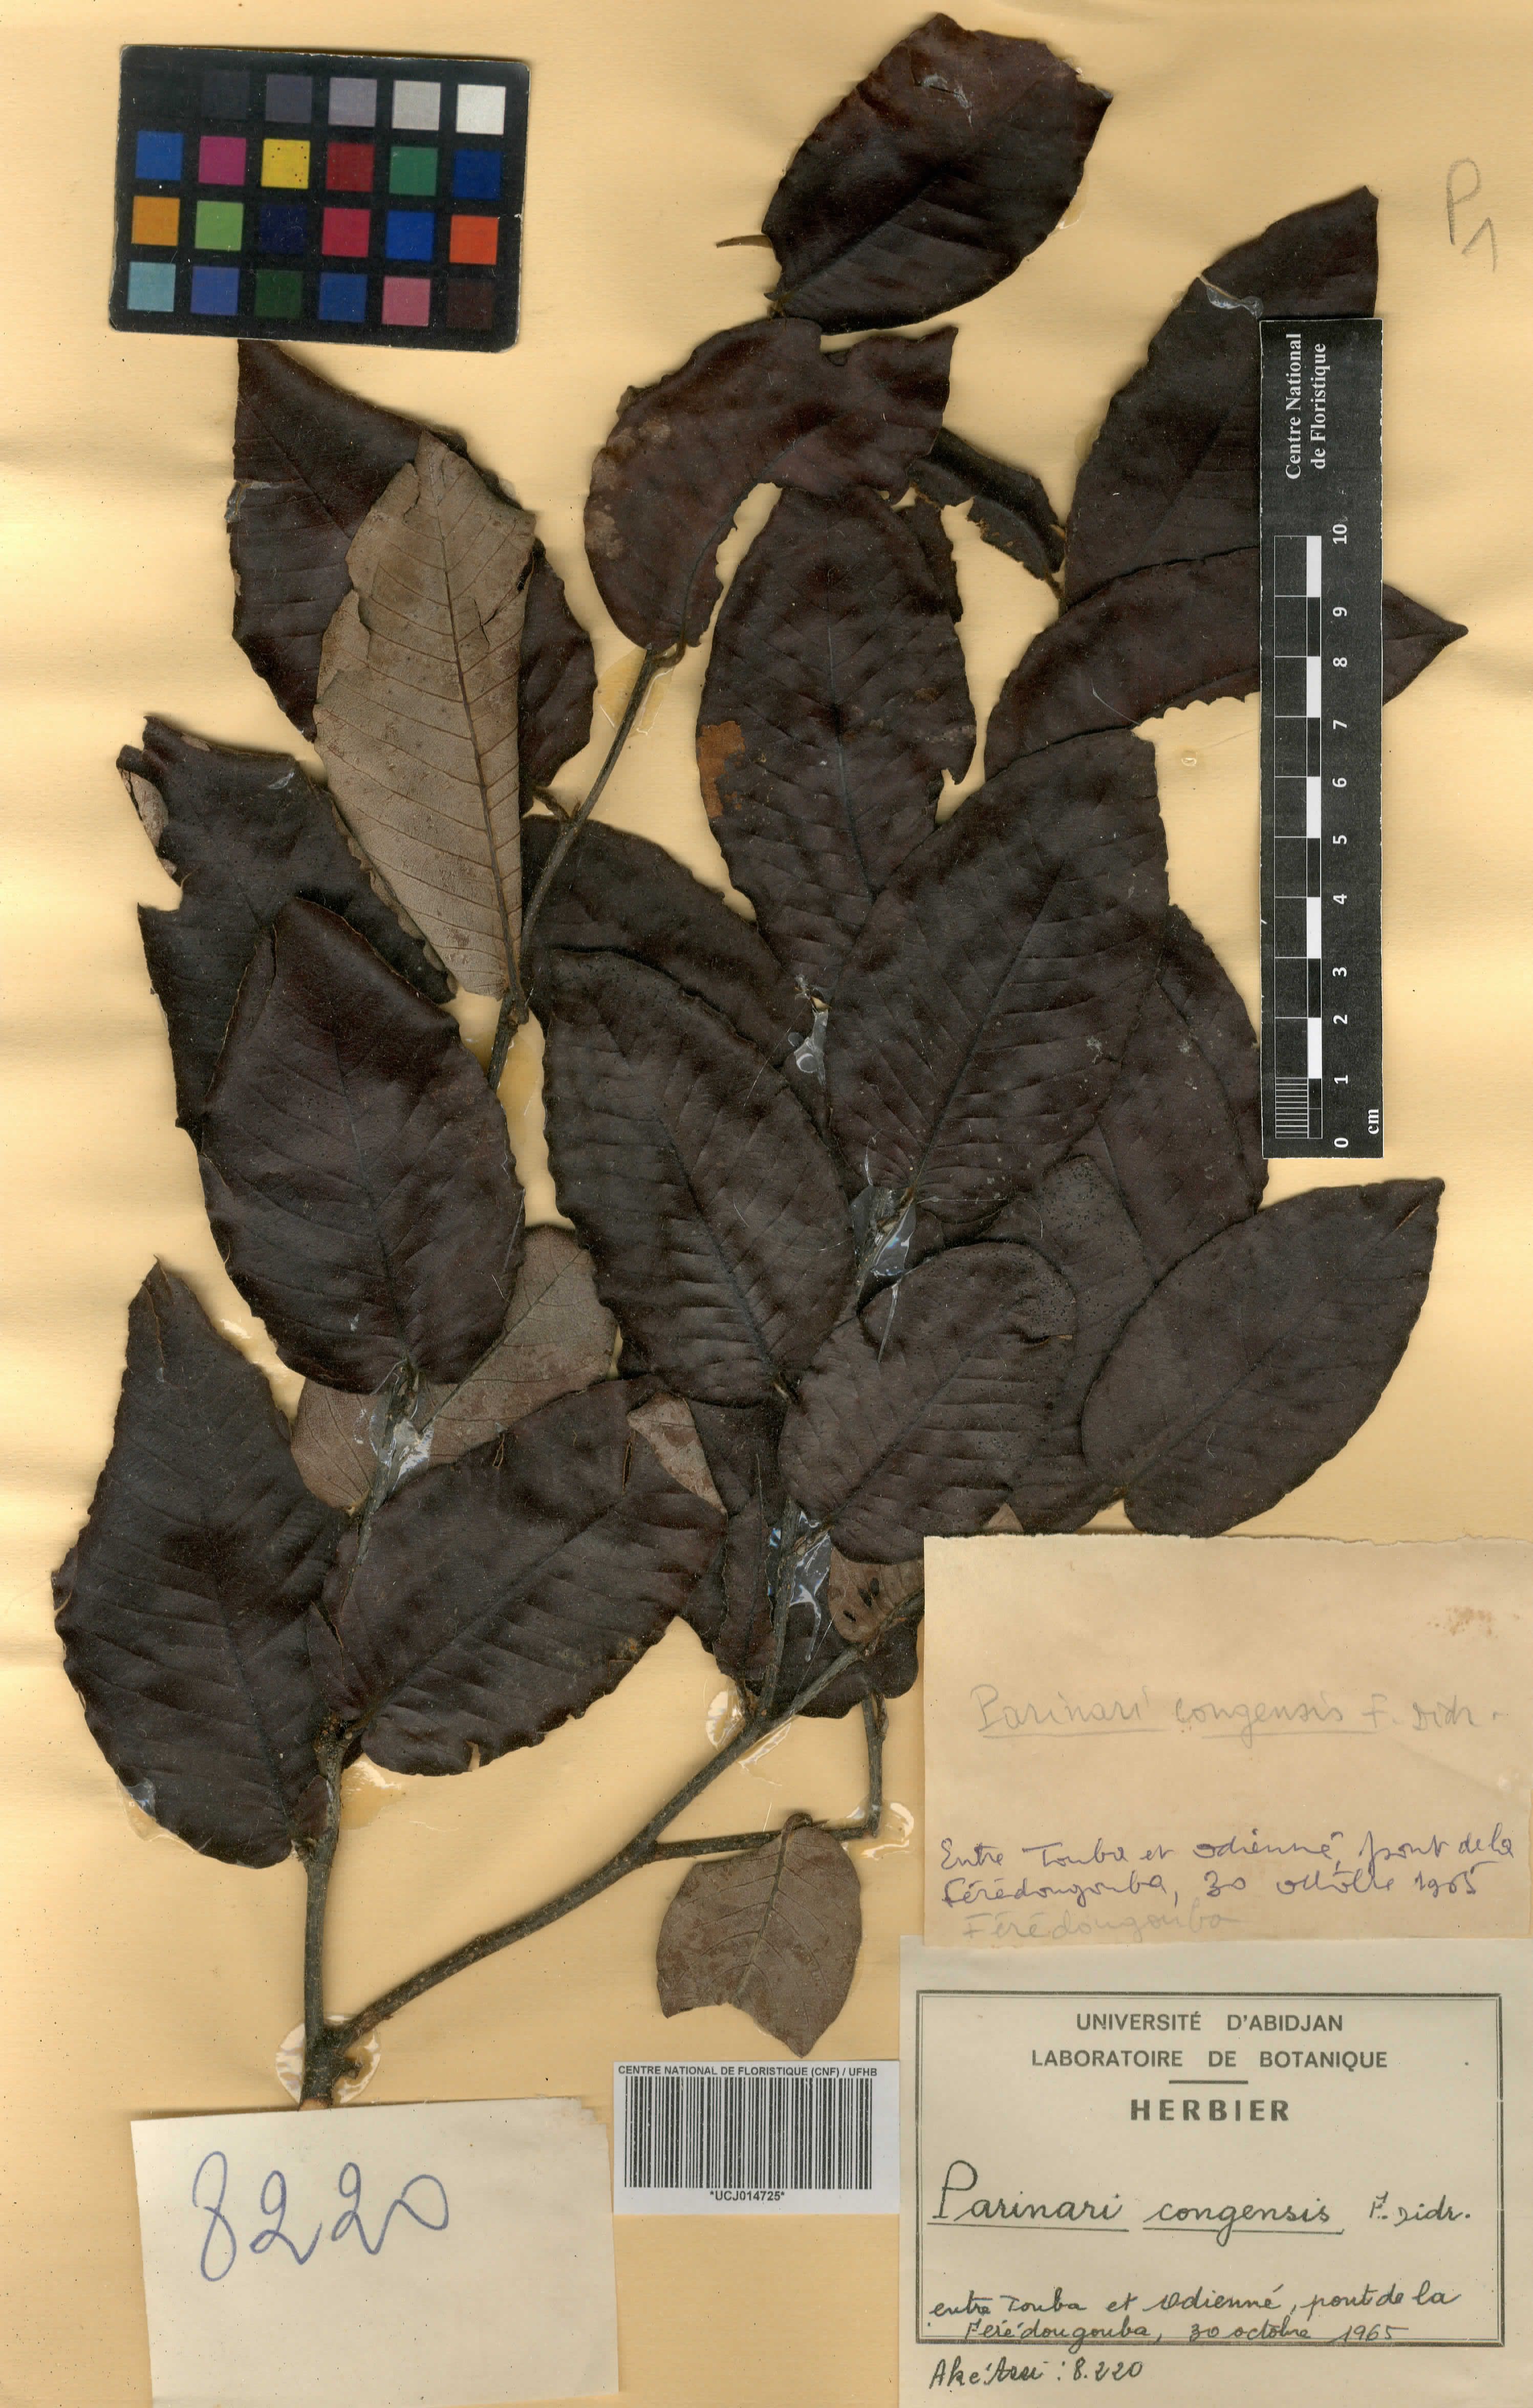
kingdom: Plantae
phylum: Tracheophyta
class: Magnoliopsida
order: Malpighiales
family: Chrysobalanaceae
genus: Parinari
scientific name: Parinari congensis
